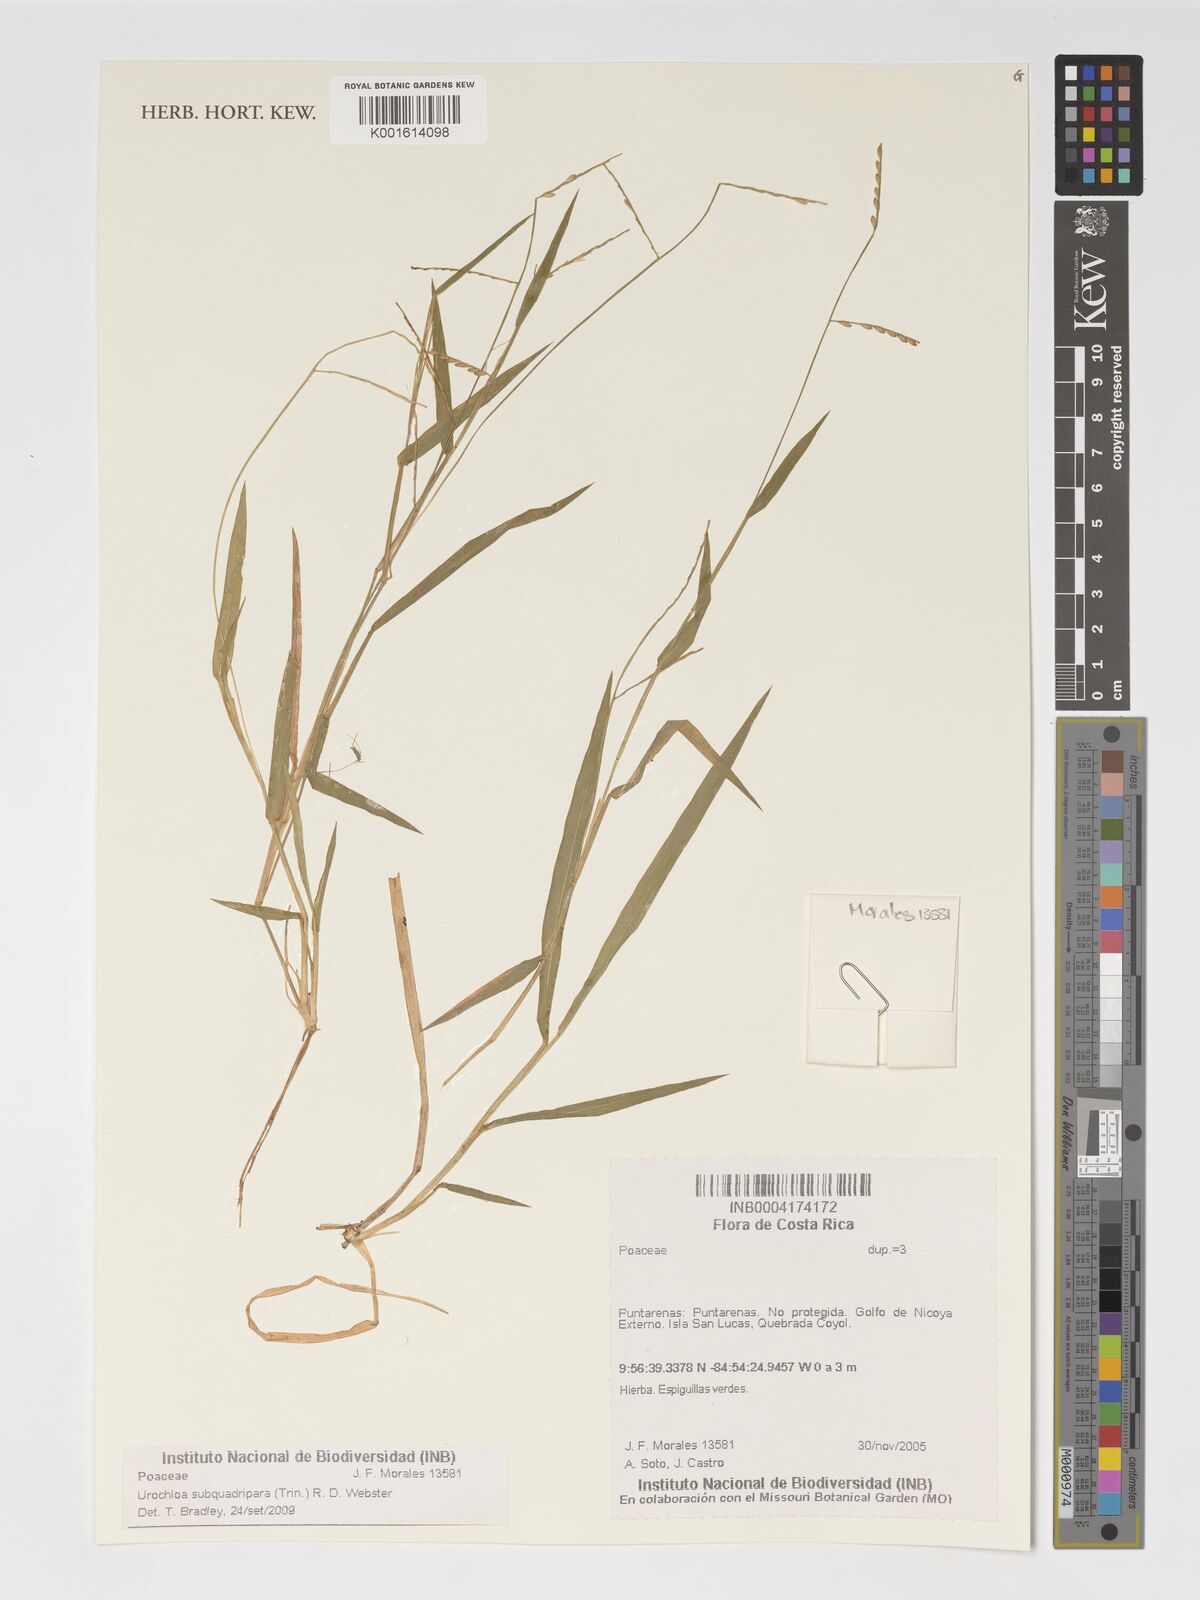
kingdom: Plantae
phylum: Tracheophyta
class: Liliopsida
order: Poales
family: Poaceae
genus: Urochloa
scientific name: Urochloa subquadripara
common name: Armgrass millet
